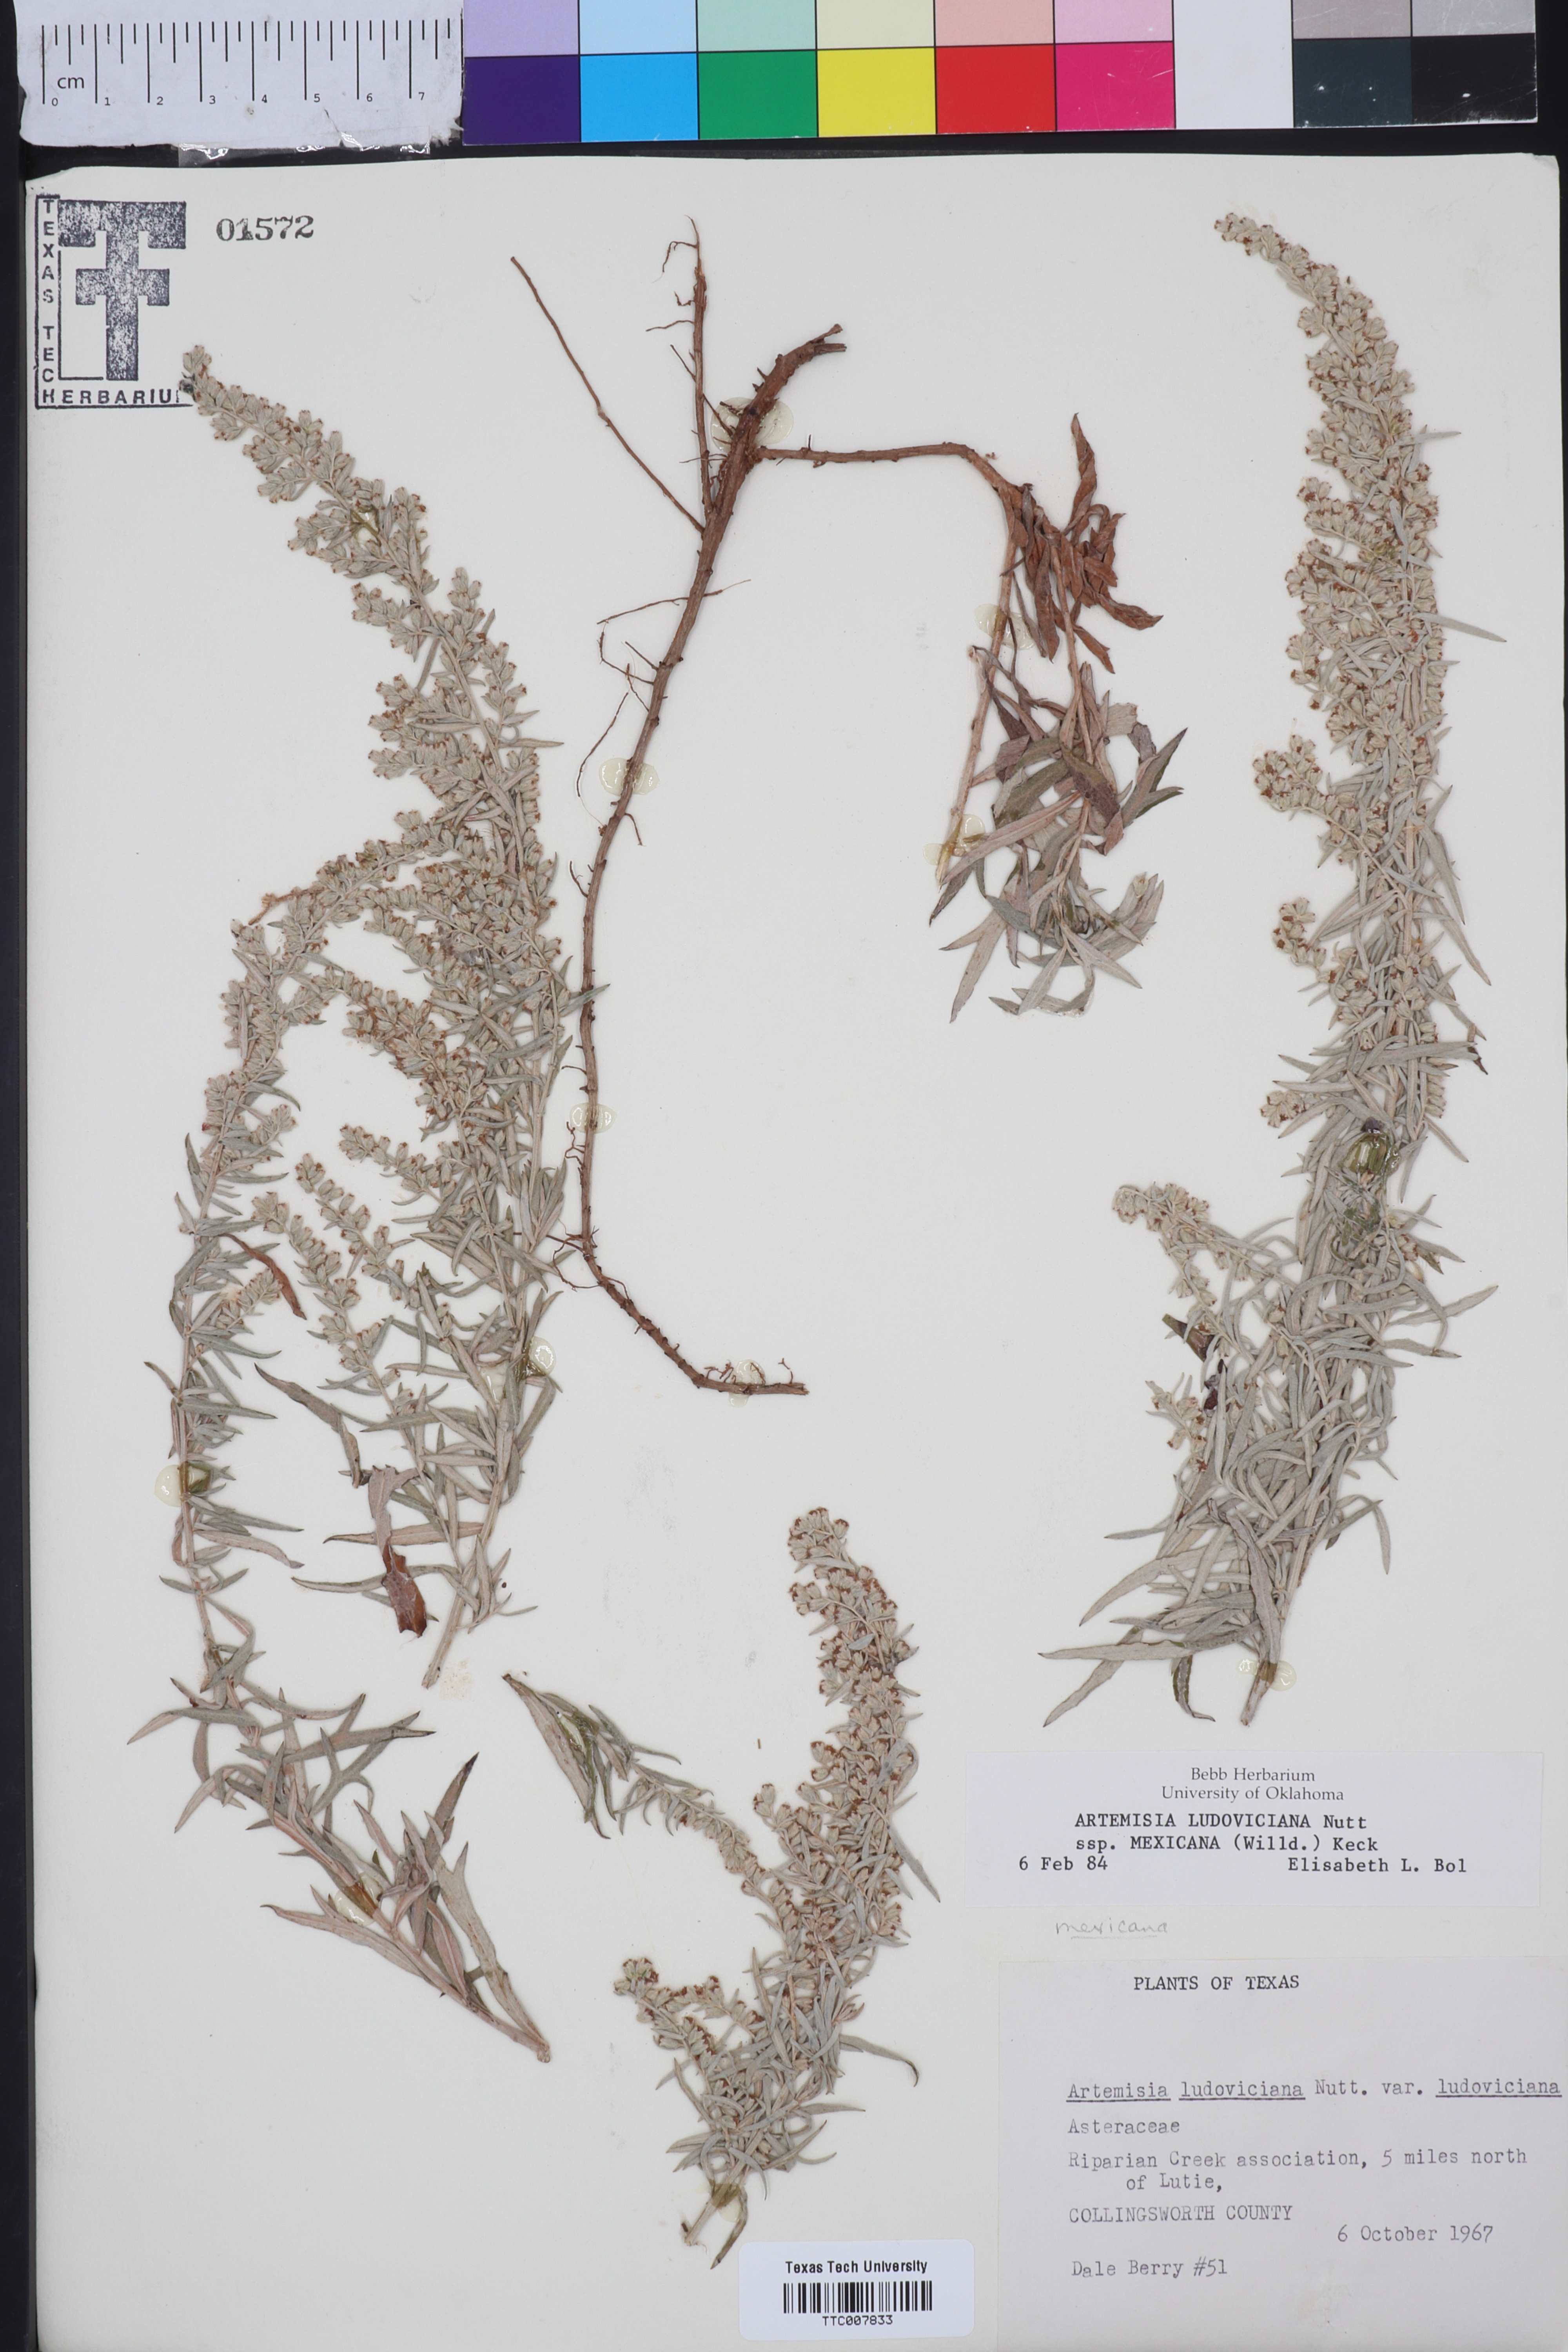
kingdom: Plantae
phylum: Tracheophyta
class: Magnoliopsida
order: Asterales
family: Asteraceae
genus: Artemisia
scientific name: Artemisia ludoviciana
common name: Western mugwort
